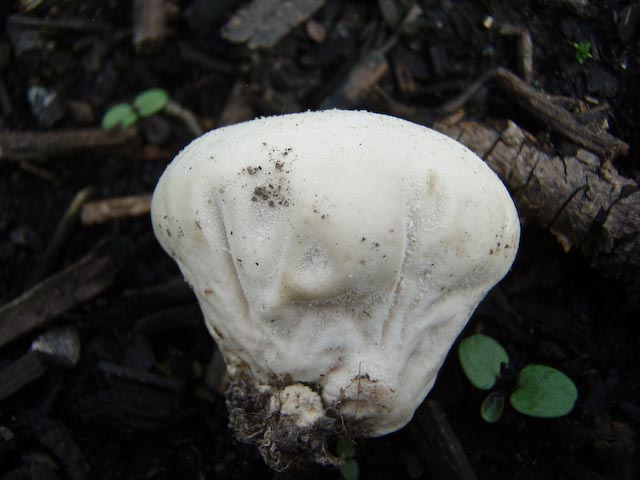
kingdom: Fungi
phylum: Basidiomycota
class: Agaricomycetes
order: Agaricales
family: Lycoperdaceae
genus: Lycoperdon
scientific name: Lycoperdon pratense
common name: flad støvbold
